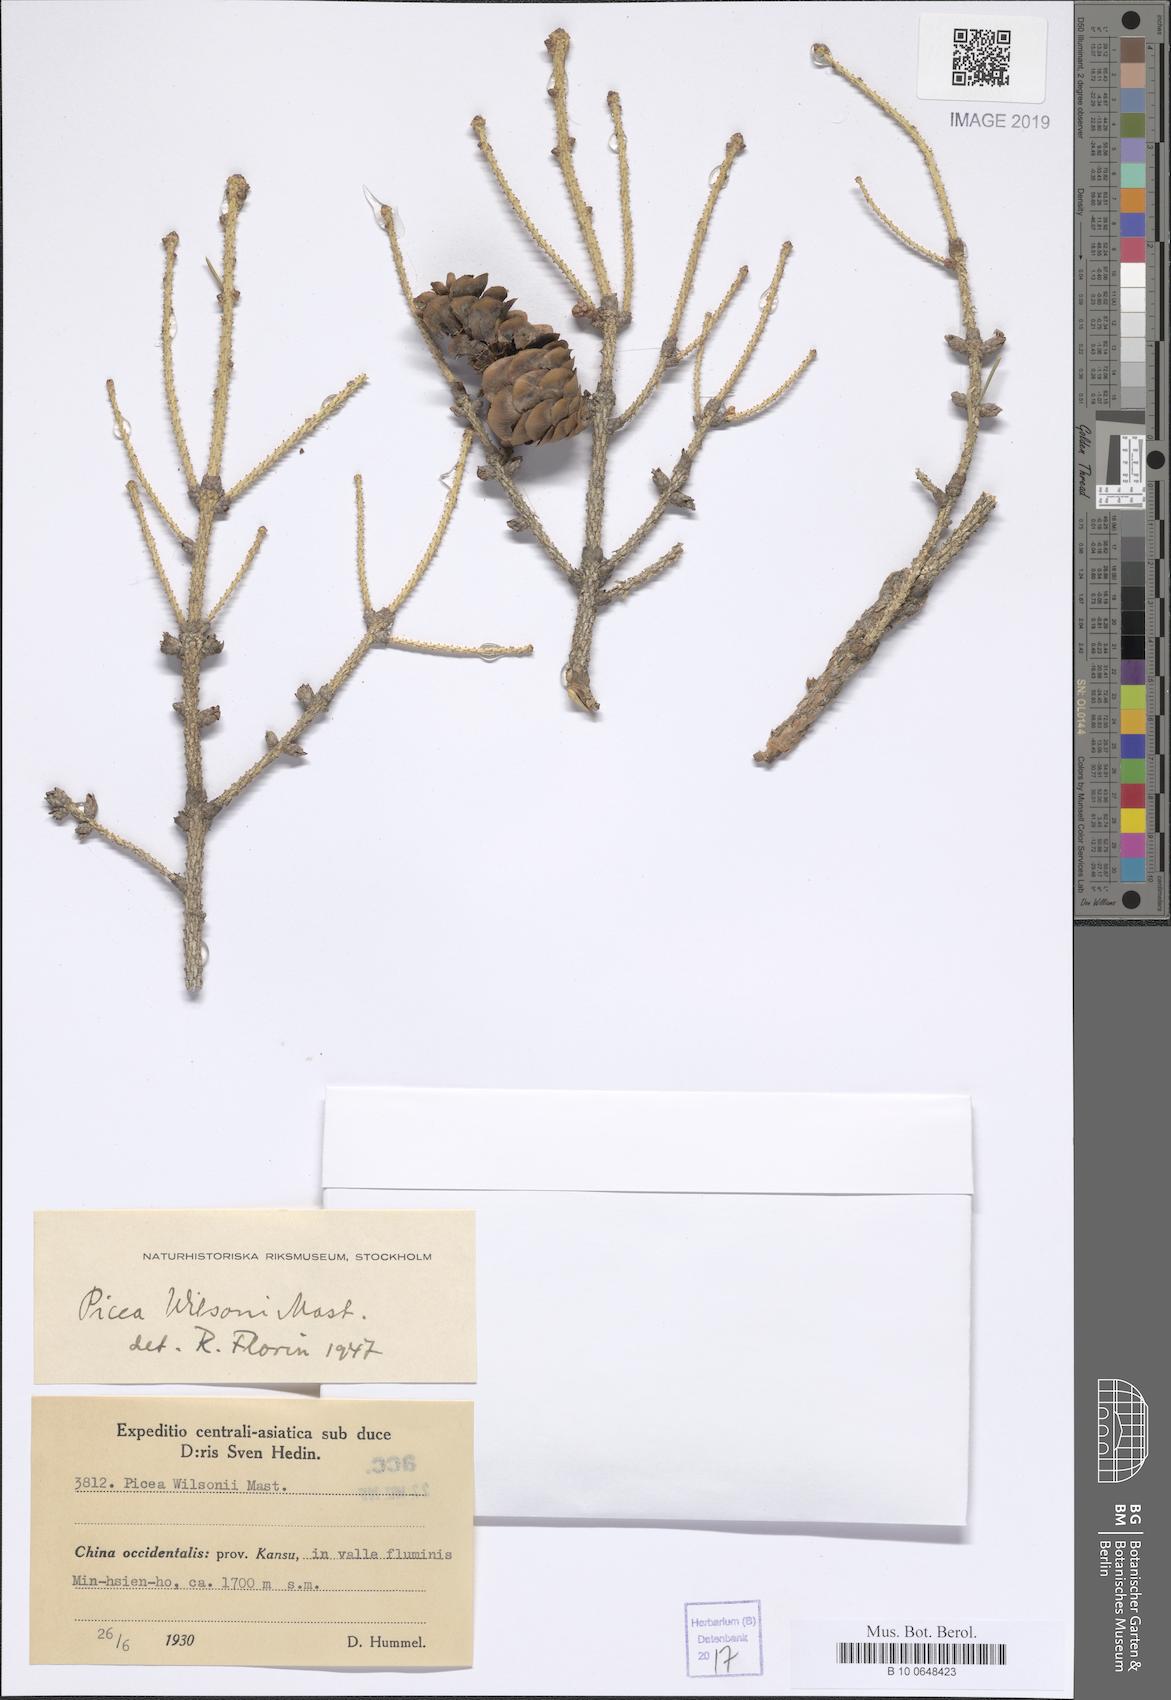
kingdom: Plantae
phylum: Tracheophyta
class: Pinopsida
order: Pinales
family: Pinaceae
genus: Picea
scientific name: Picea wilsonii
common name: Wilson spruce
